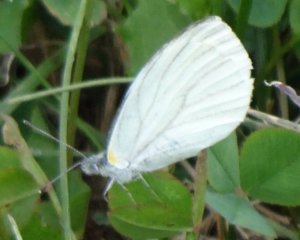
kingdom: Animalia
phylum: Arthropoda
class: Insecta
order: Lepidoptera
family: Pieridae
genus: Pieris
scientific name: Pieris oleracea
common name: Mustard White
